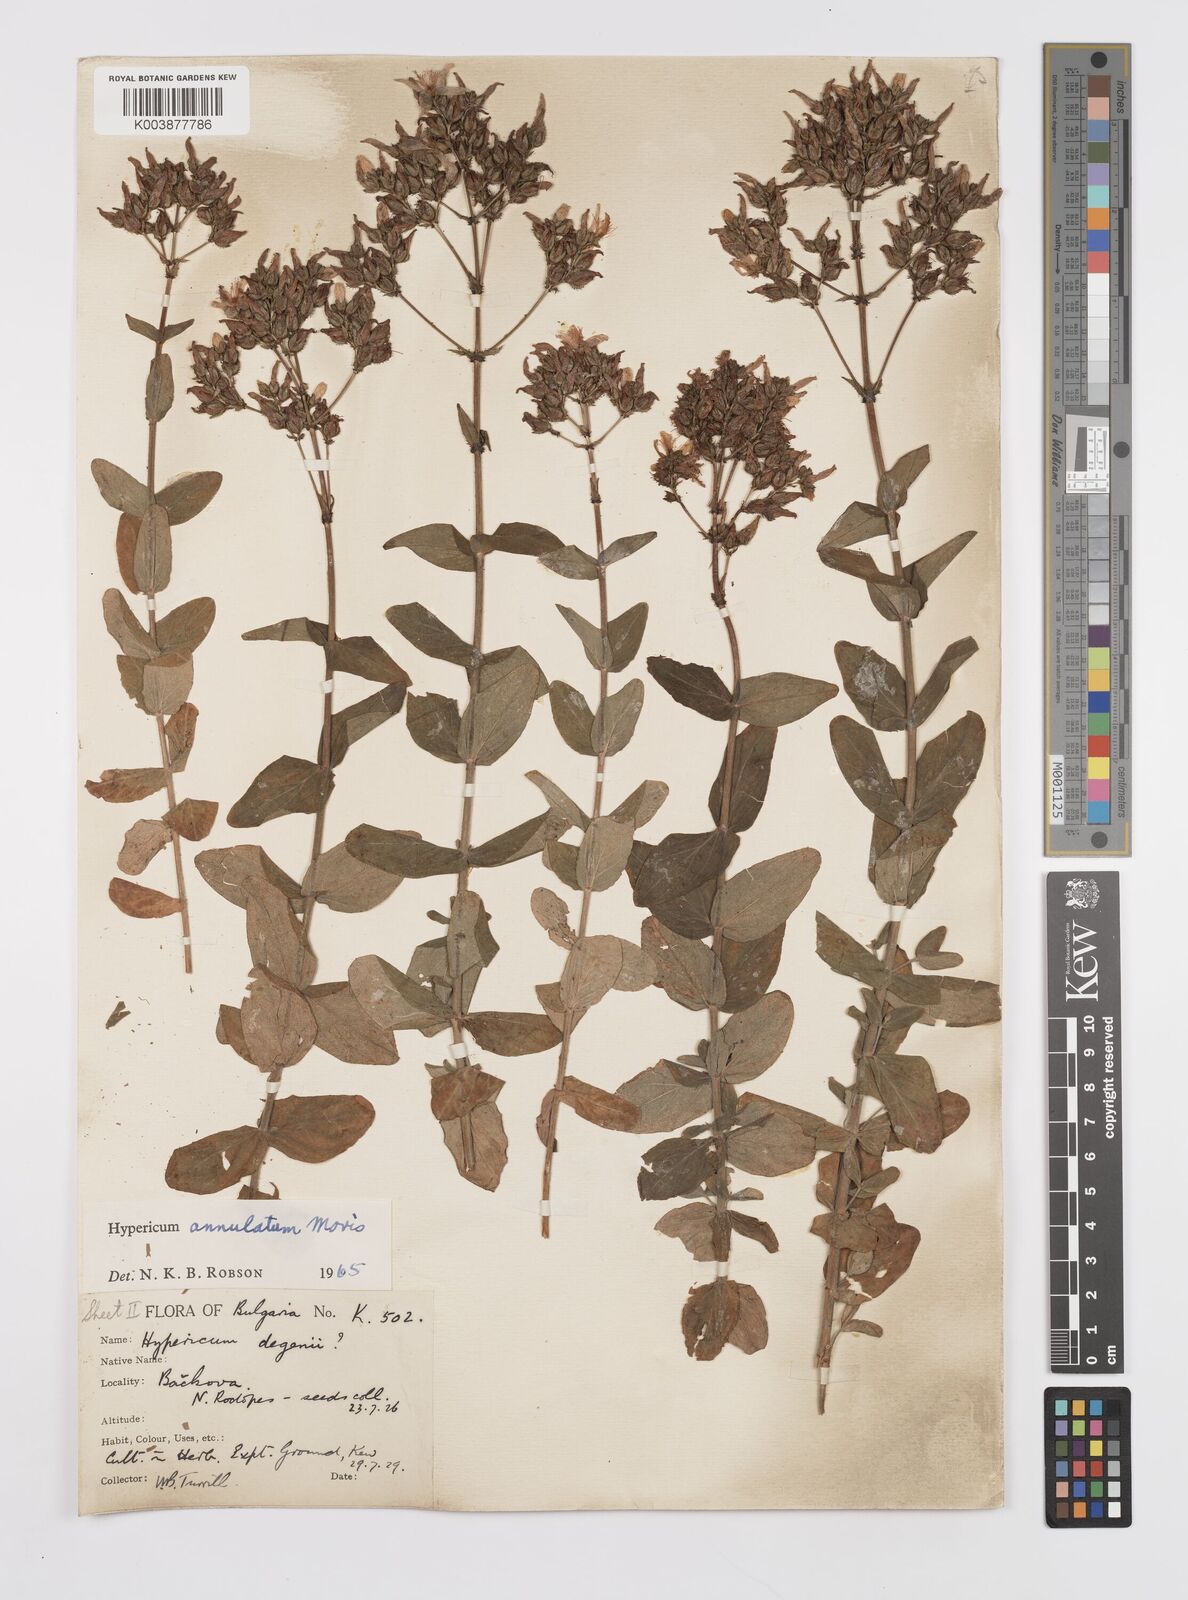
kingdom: Plantae
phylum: Tracheophyta
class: Magnoliopsida
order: Malpighiales
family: Hypericaceae
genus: Hypericum
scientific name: Hypericum annulatum
